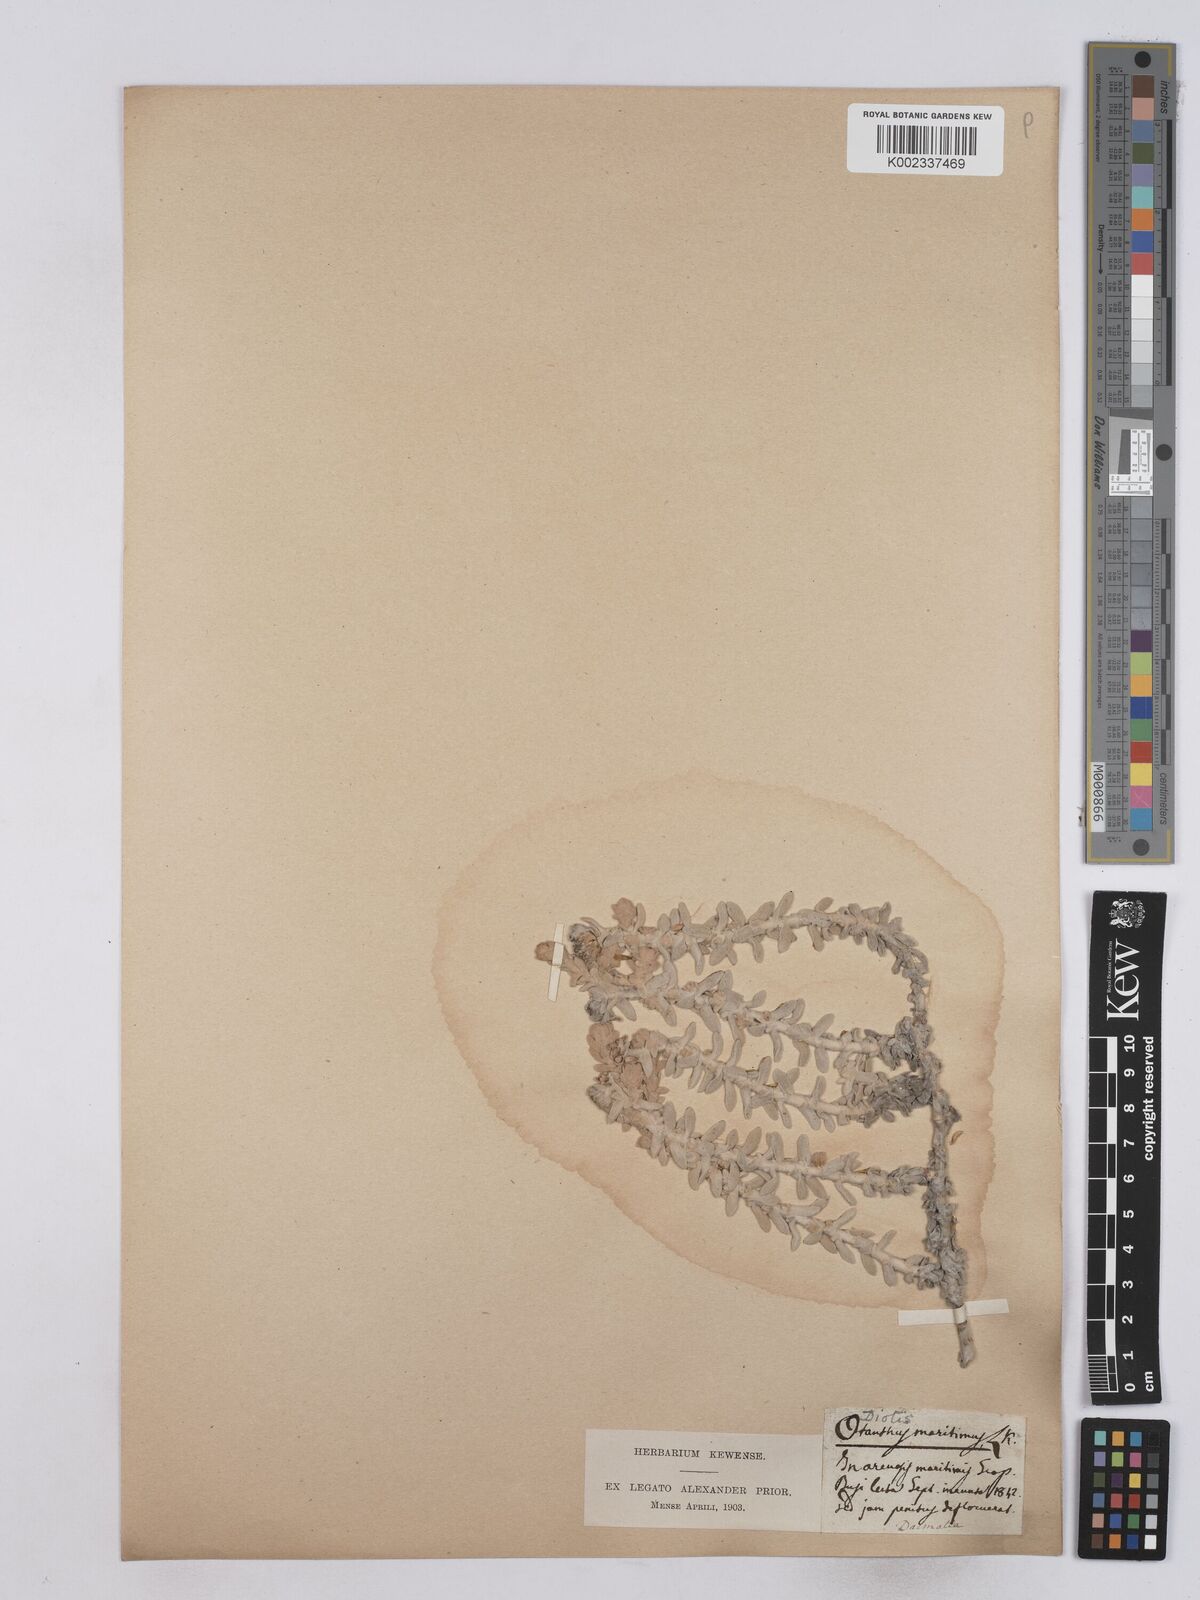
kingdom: Plantae
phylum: Tracheophyta
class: Magnoliopsida
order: Asterales
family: Asteraceae
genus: Achillea
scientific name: Achillea
